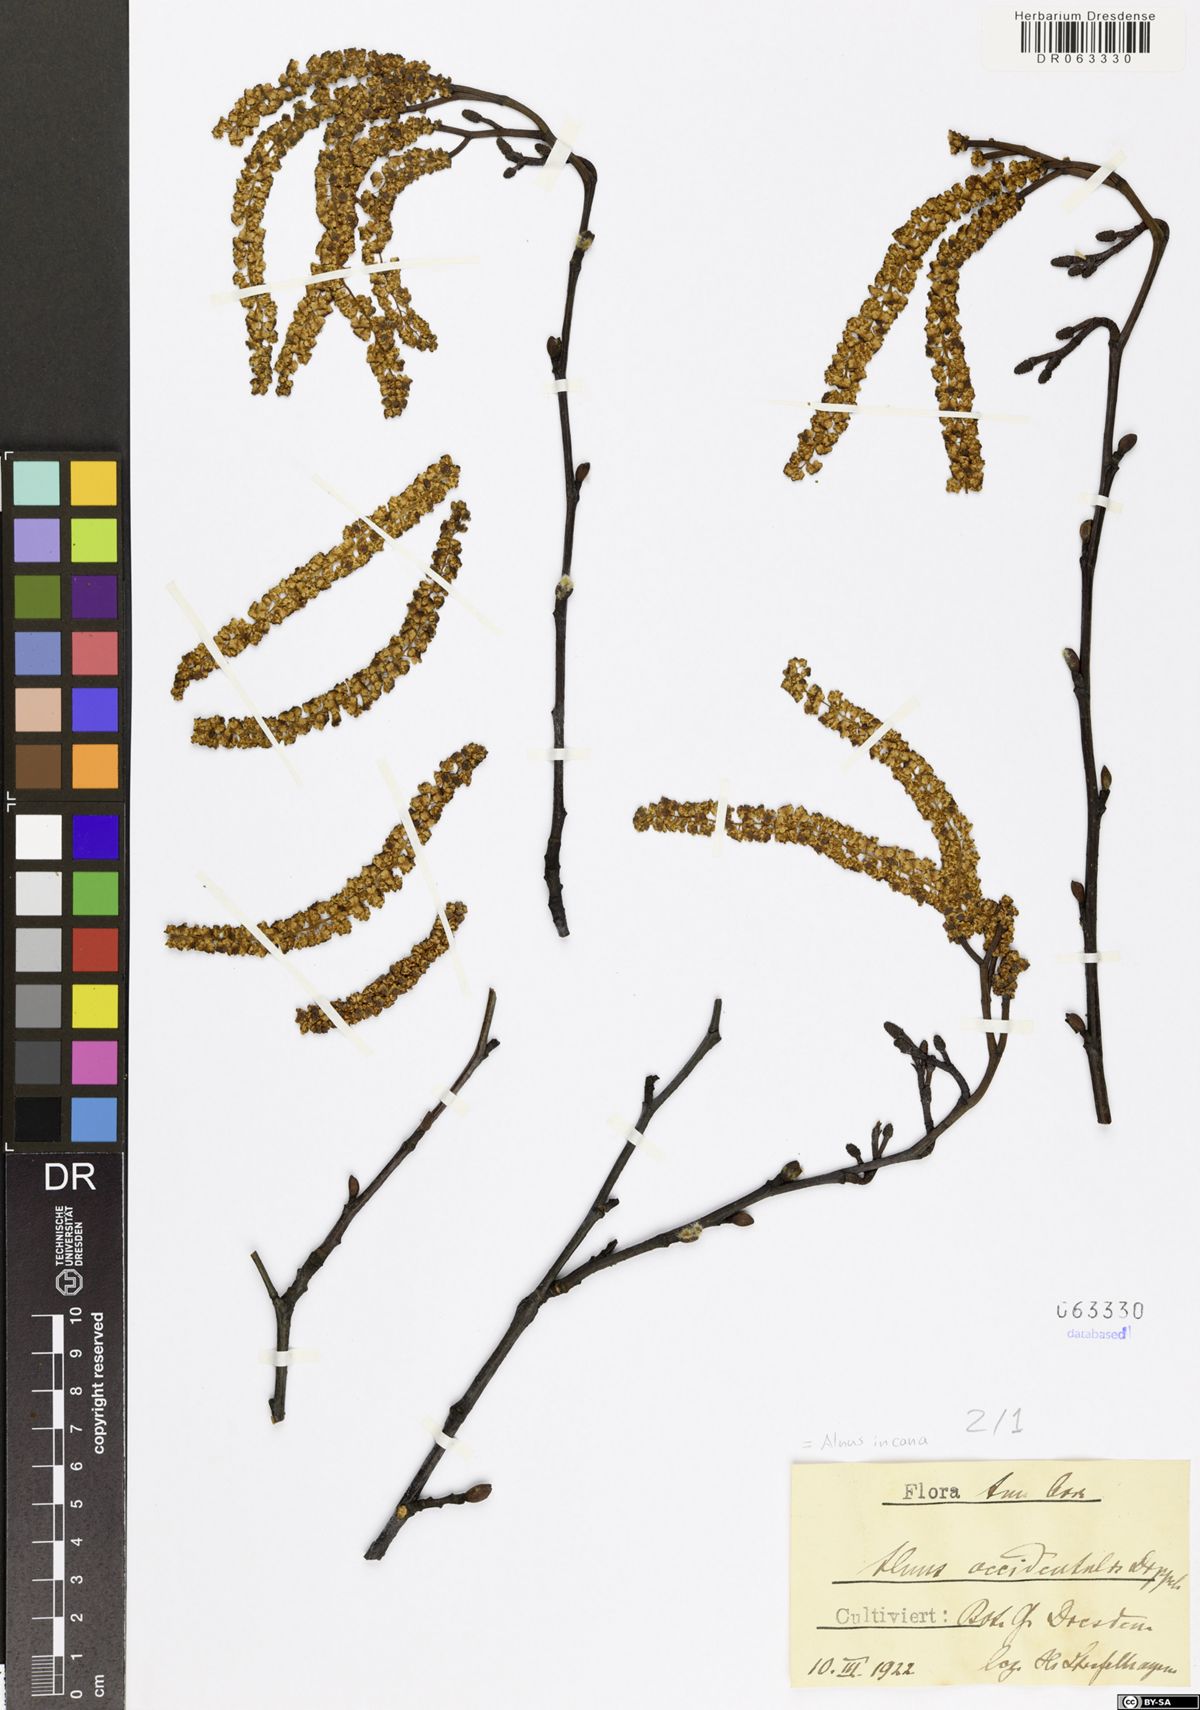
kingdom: Plantae
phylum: Tracheophyta
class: Magnoliopsida
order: Fagales
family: Betulaceae
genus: Alnus
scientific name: Alnus incana
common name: Grey alder
